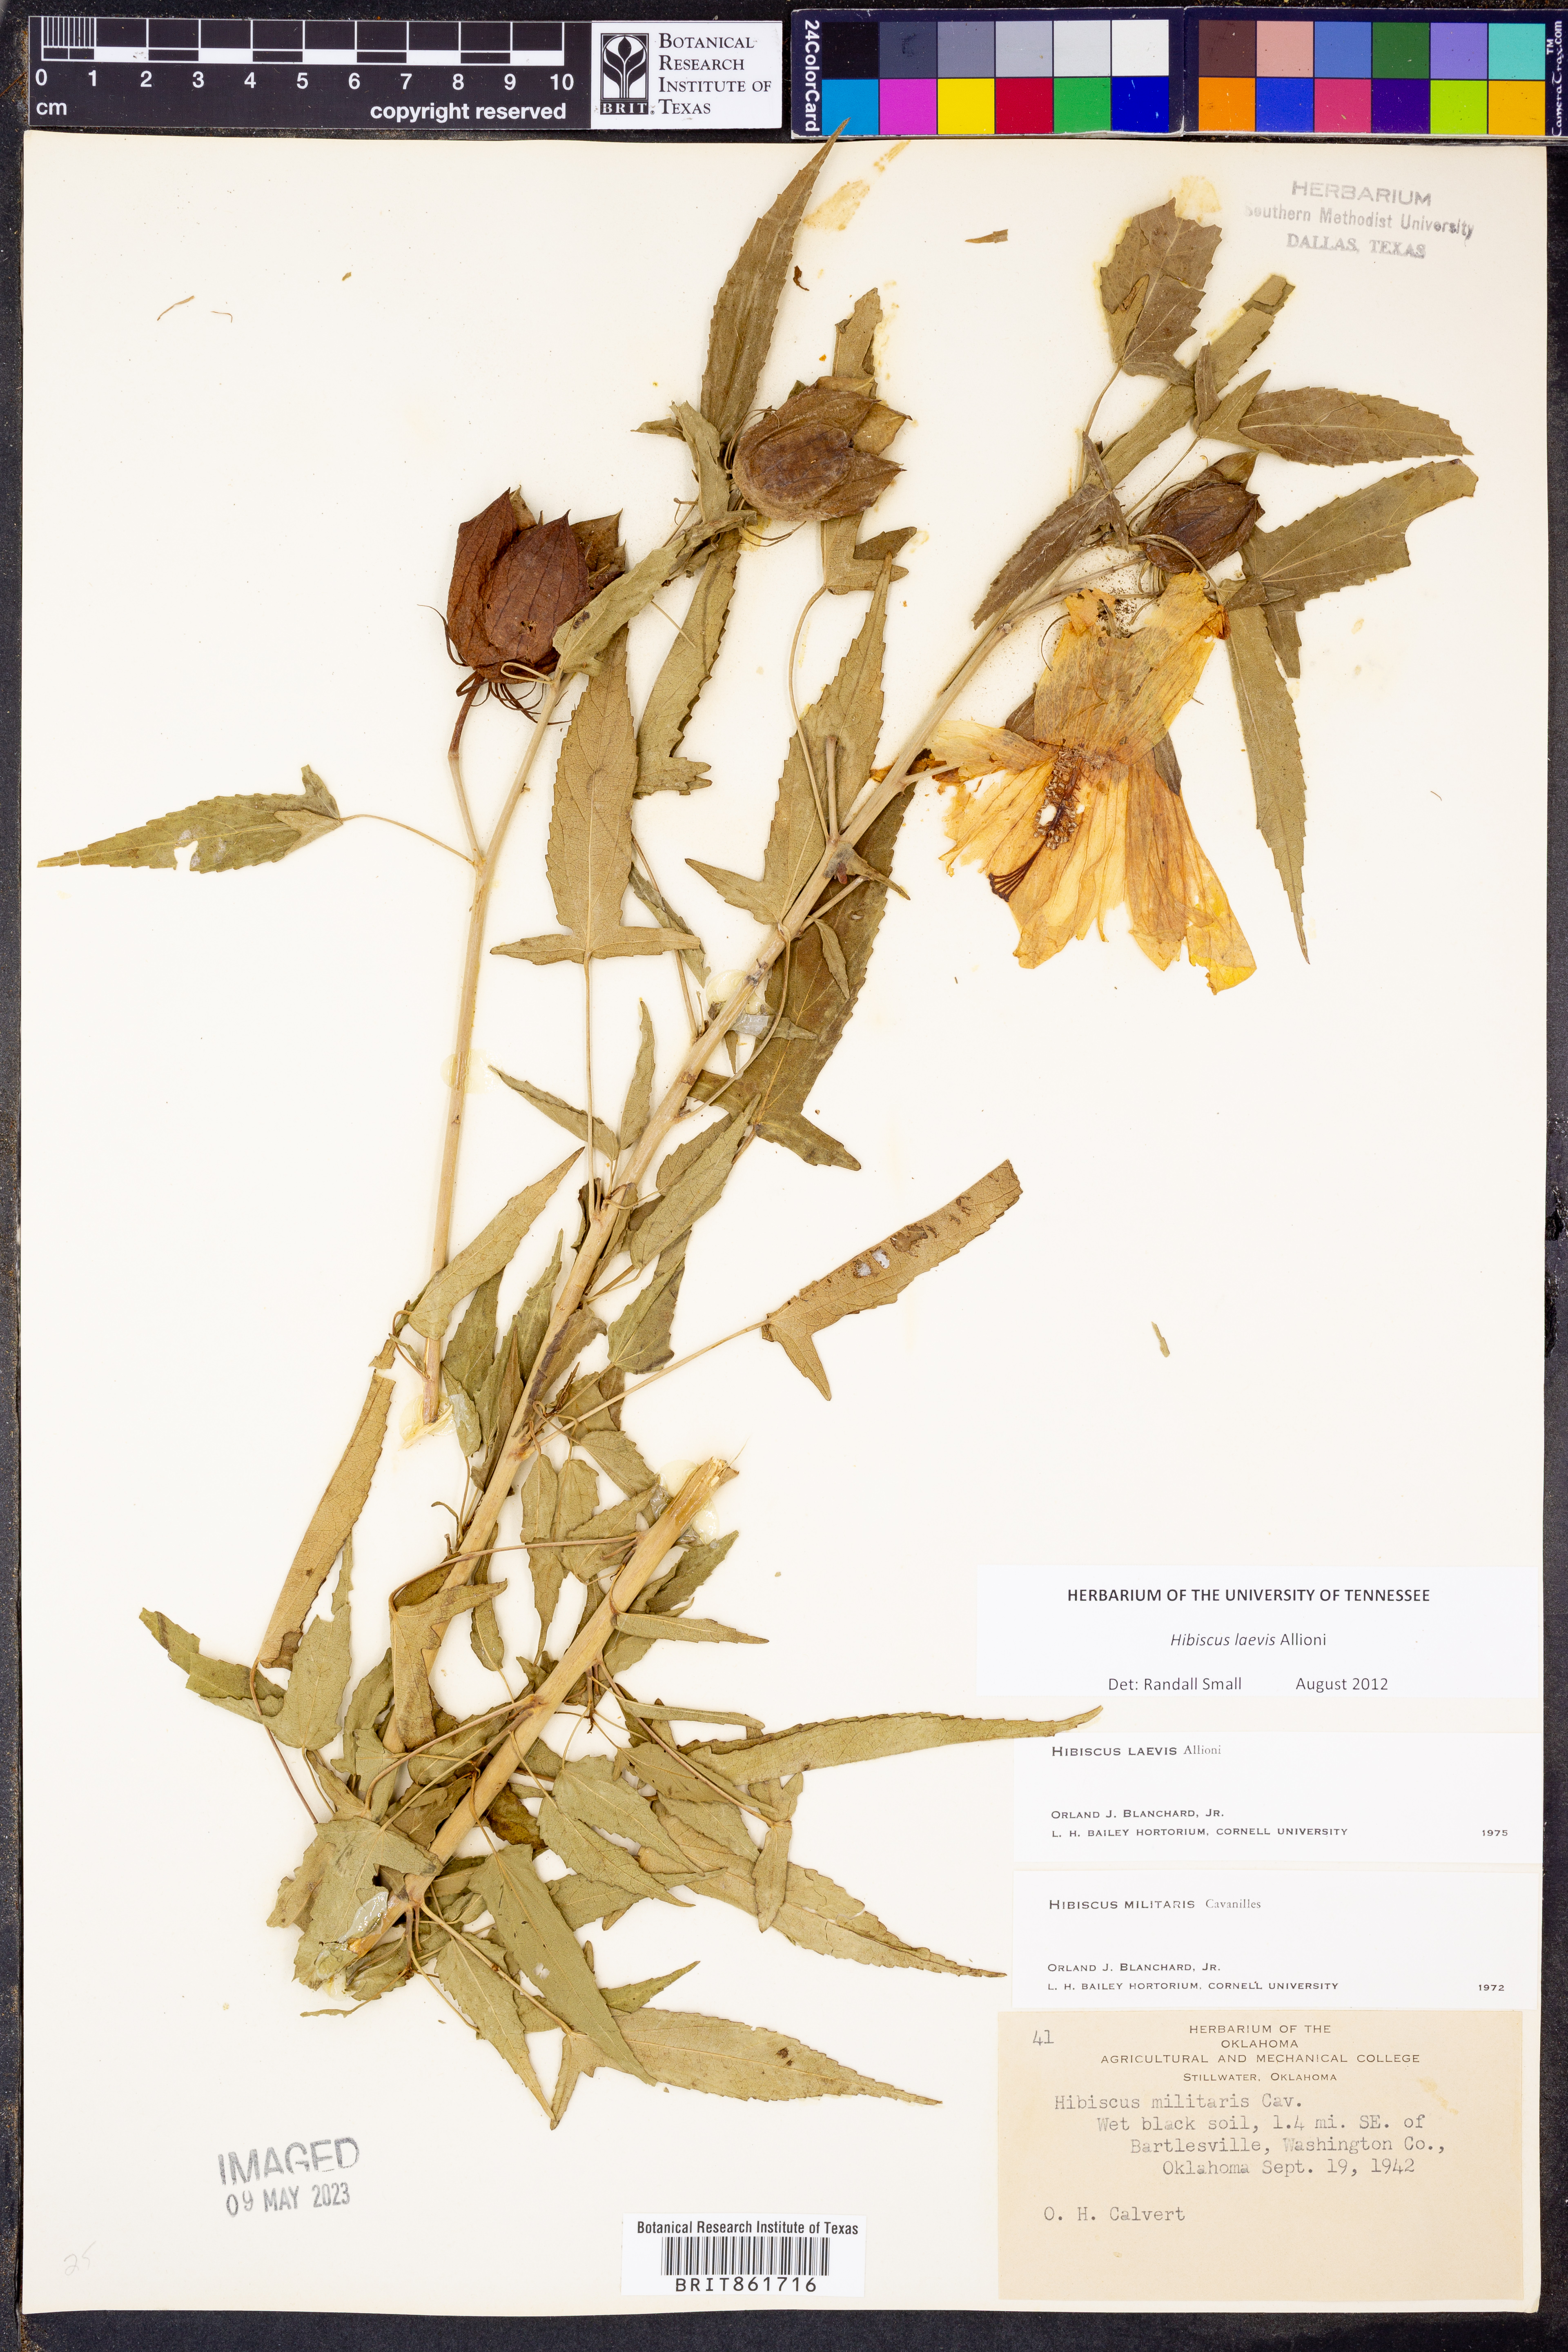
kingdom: Plantae
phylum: Tracheophyta
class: Magnoliopsida
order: Malvales
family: Malvaceae
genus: Hibiscus
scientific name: Hibiscus laevis
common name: Scarlet rose-mallow
